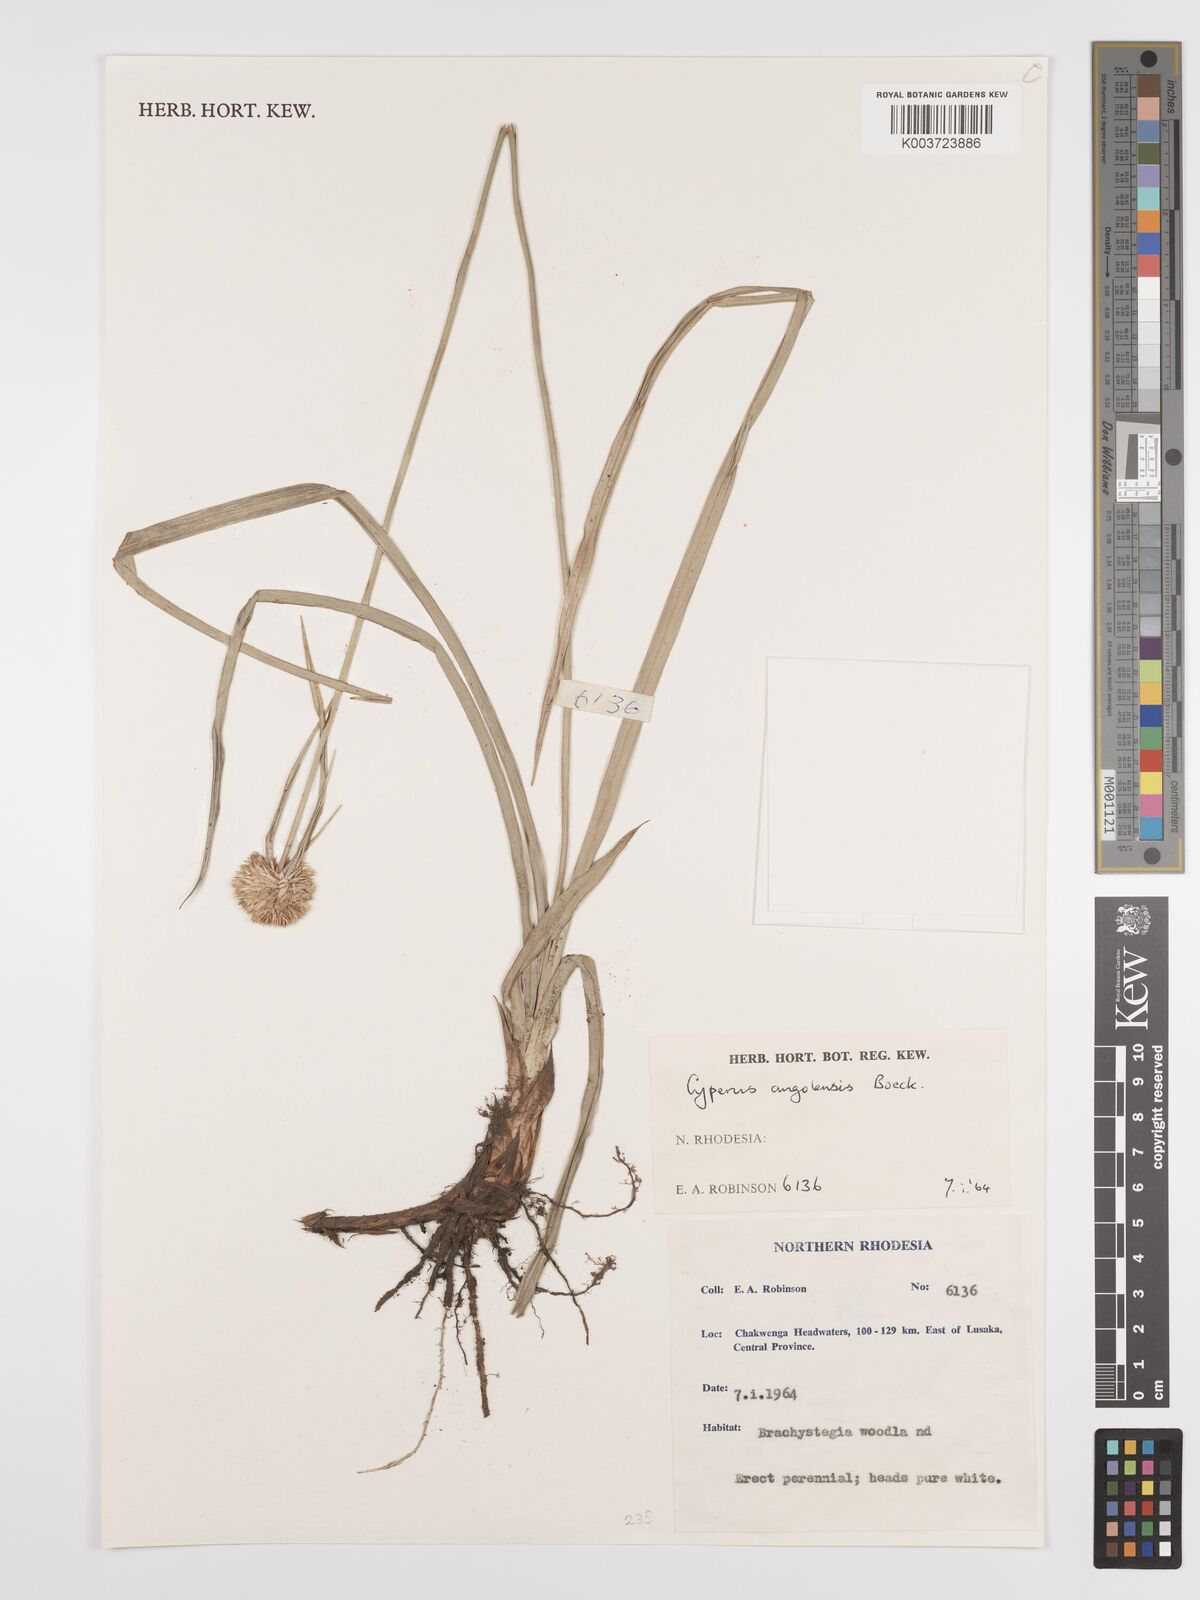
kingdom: Plantae
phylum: Tracheophyta
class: Liliopsida
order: Poales
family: Cyperaceae
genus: Cyperus
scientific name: Cyperus angolensis
